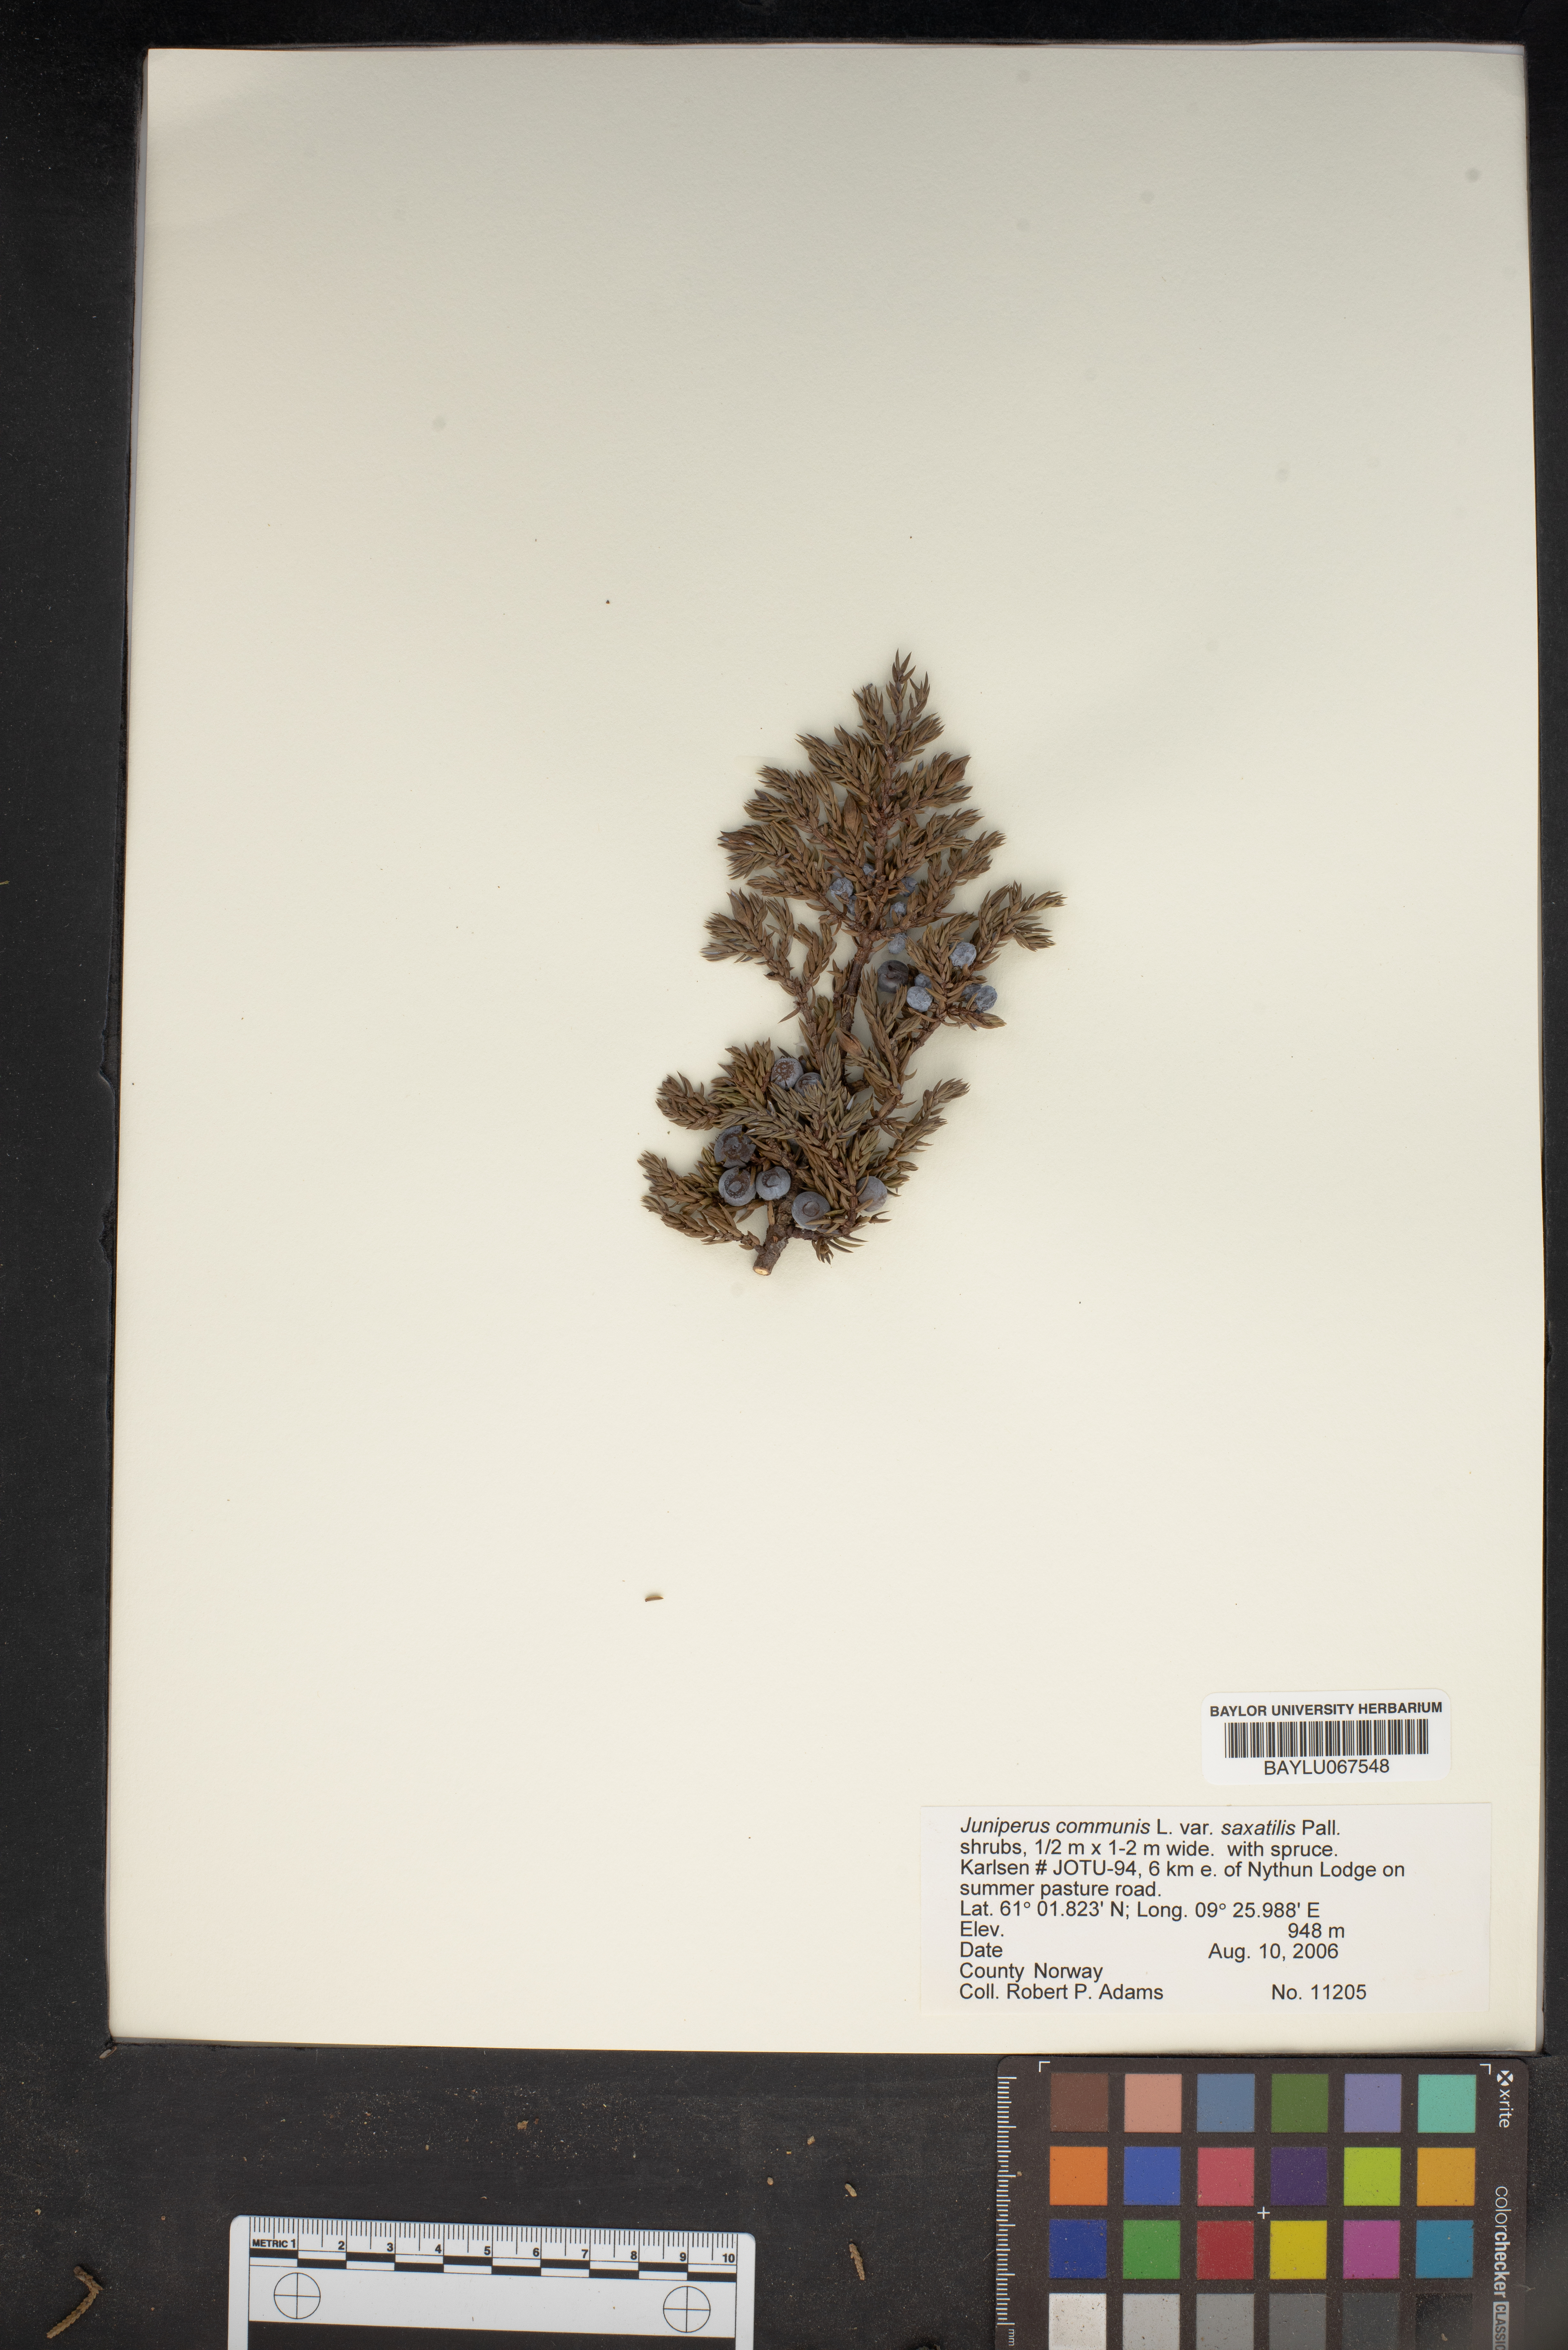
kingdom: Plantae
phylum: Tracheophyta
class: Pinopsida
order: Pinales
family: Cupressaceae
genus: Juniperus
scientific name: Juniperus communis
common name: Common juniper
